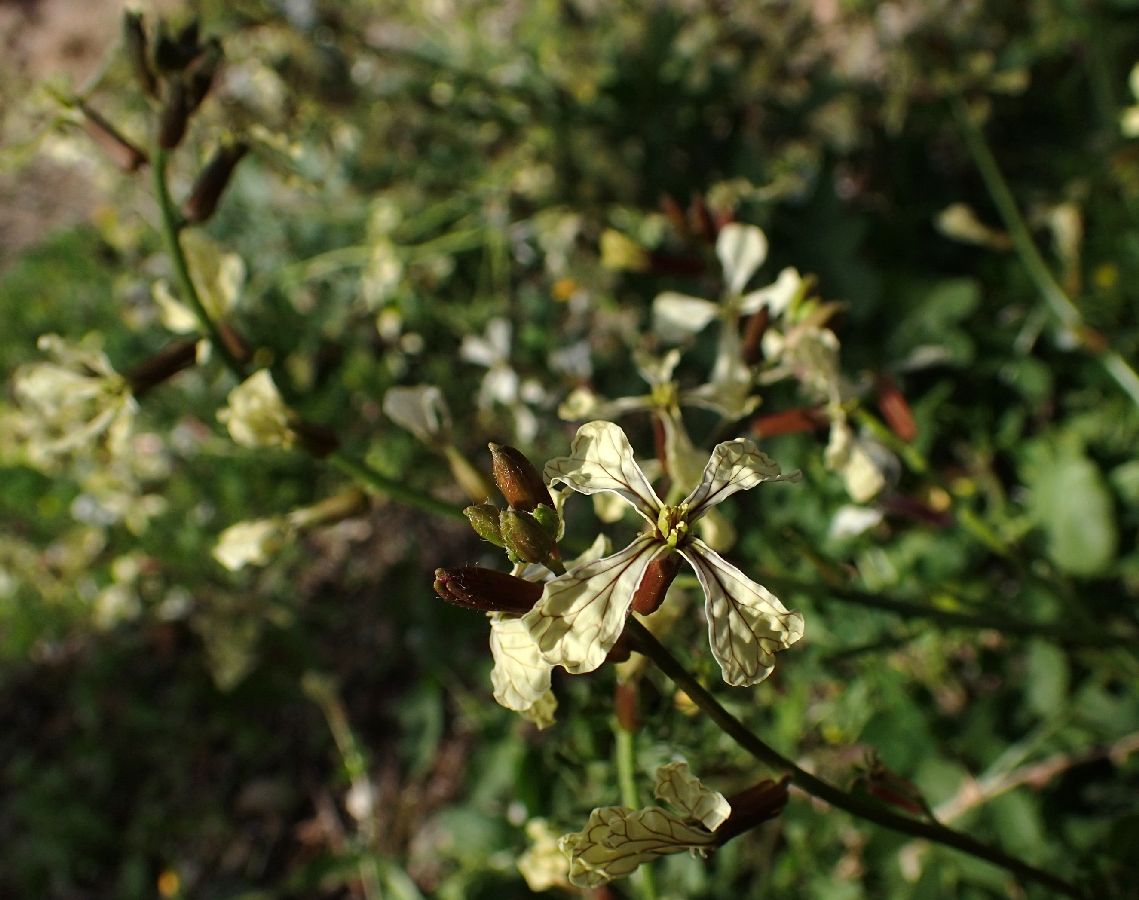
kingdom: Plantae
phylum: Tracheophyta
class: Magnoliopsida
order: Brassicales
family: Brassicaceae
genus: Eruca
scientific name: Eruca vesicaria
